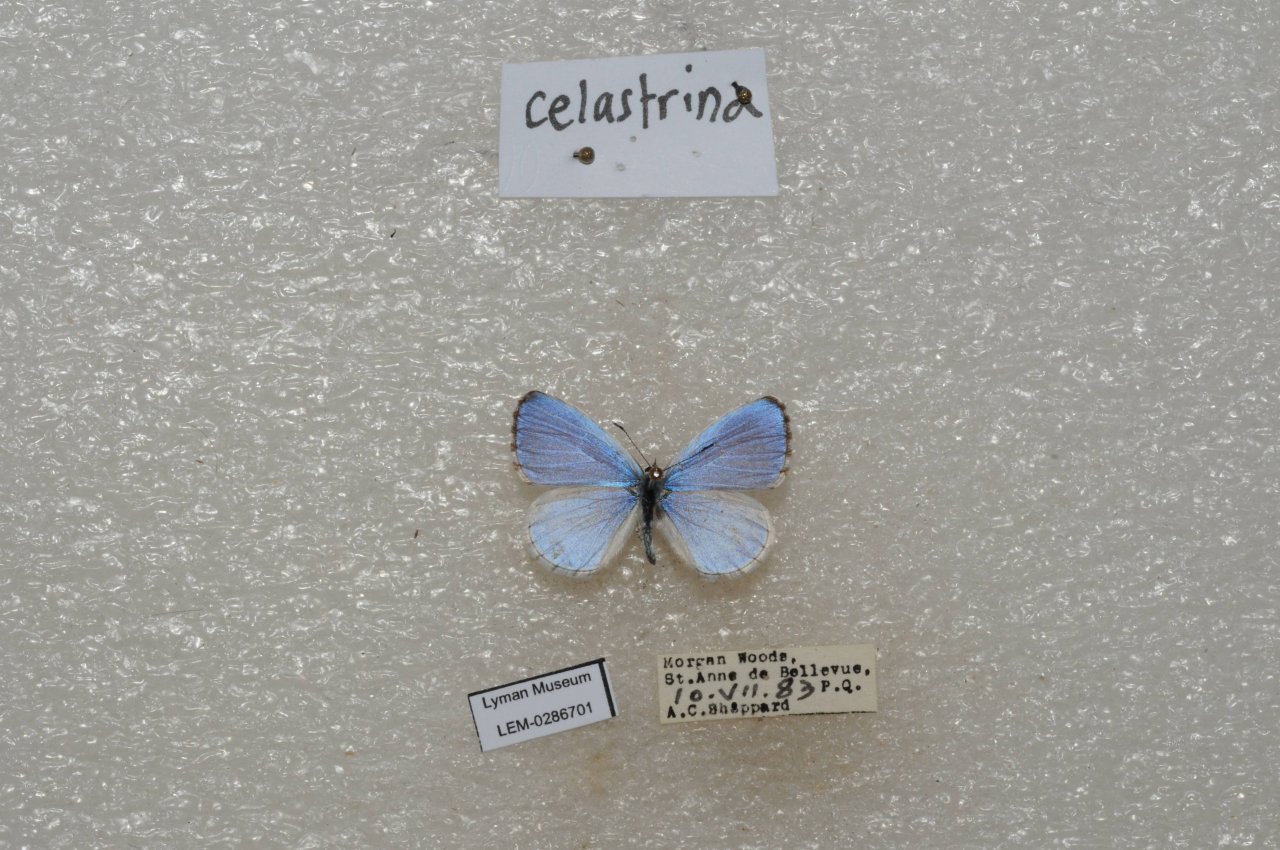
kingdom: Animalia
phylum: Arthropoda
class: Insecta
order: Lepidoptera
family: Lycaenidae
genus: Celastrina
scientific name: Celastrina lucia
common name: Northern Spring Azure
